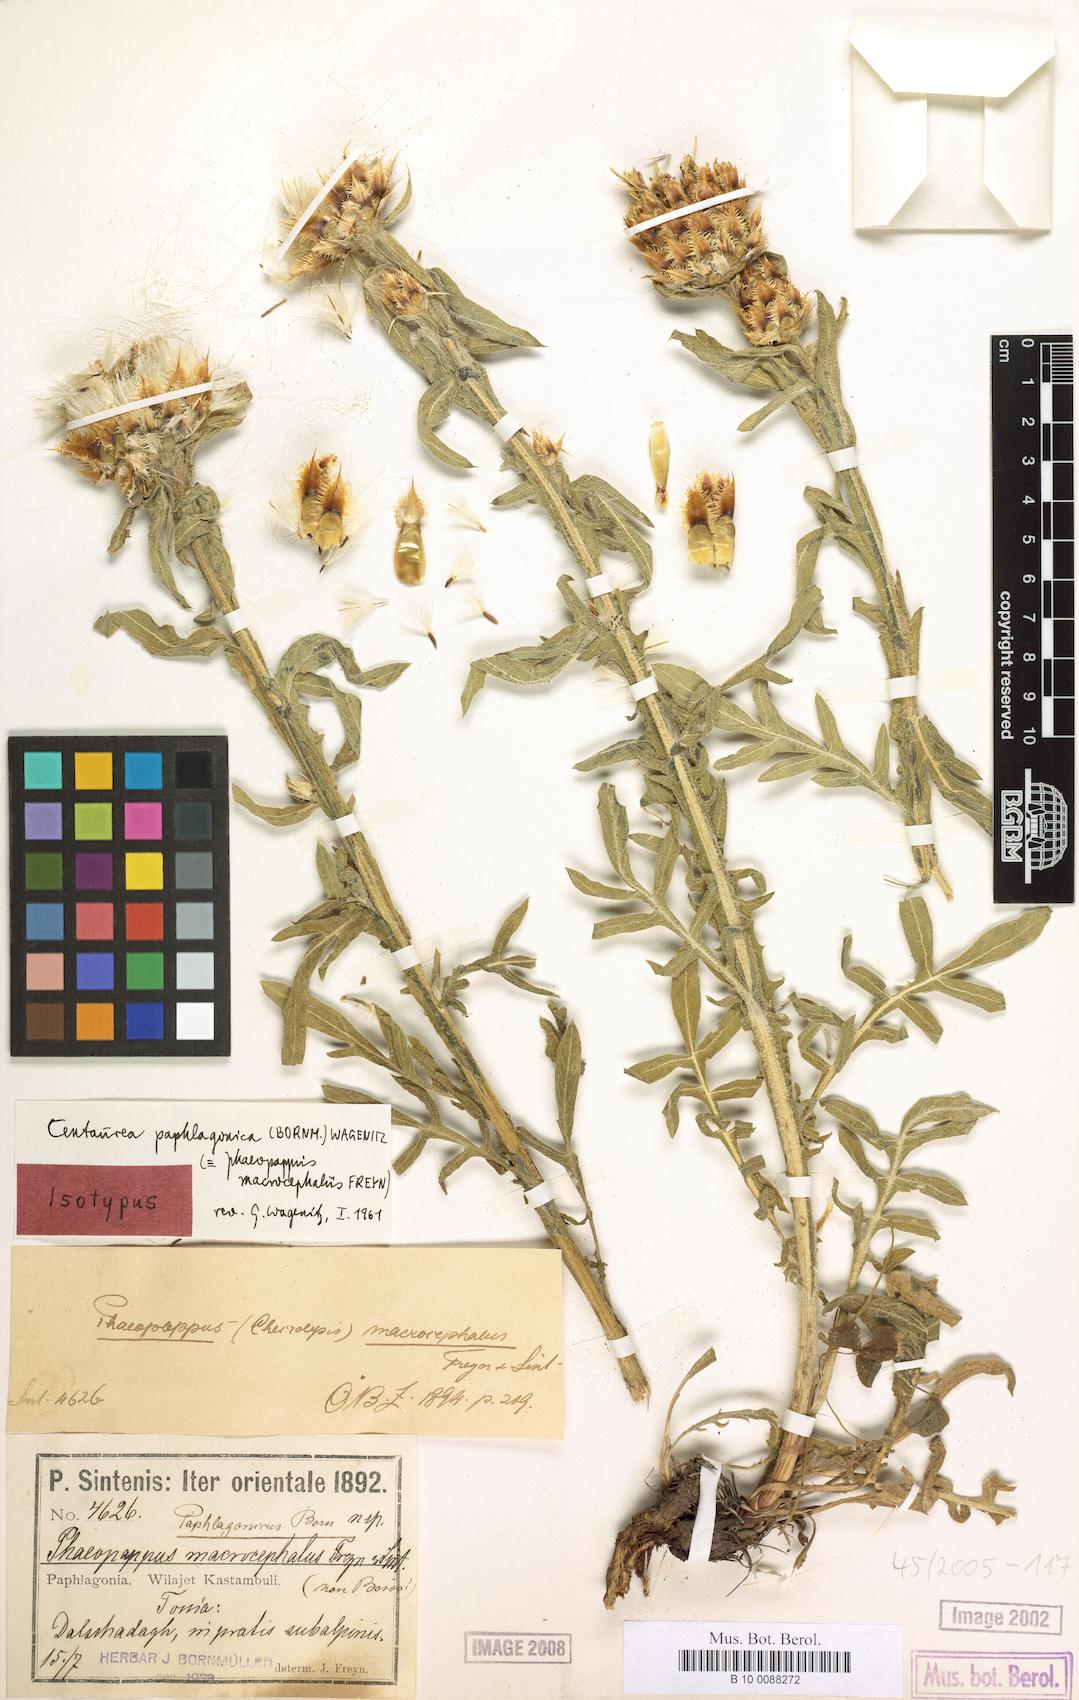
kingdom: Plantae
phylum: Tracheophyta
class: Magnoliopsida
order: Asterales
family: Asteraceae
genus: Centaurea
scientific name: Centaurea paphlagonica
